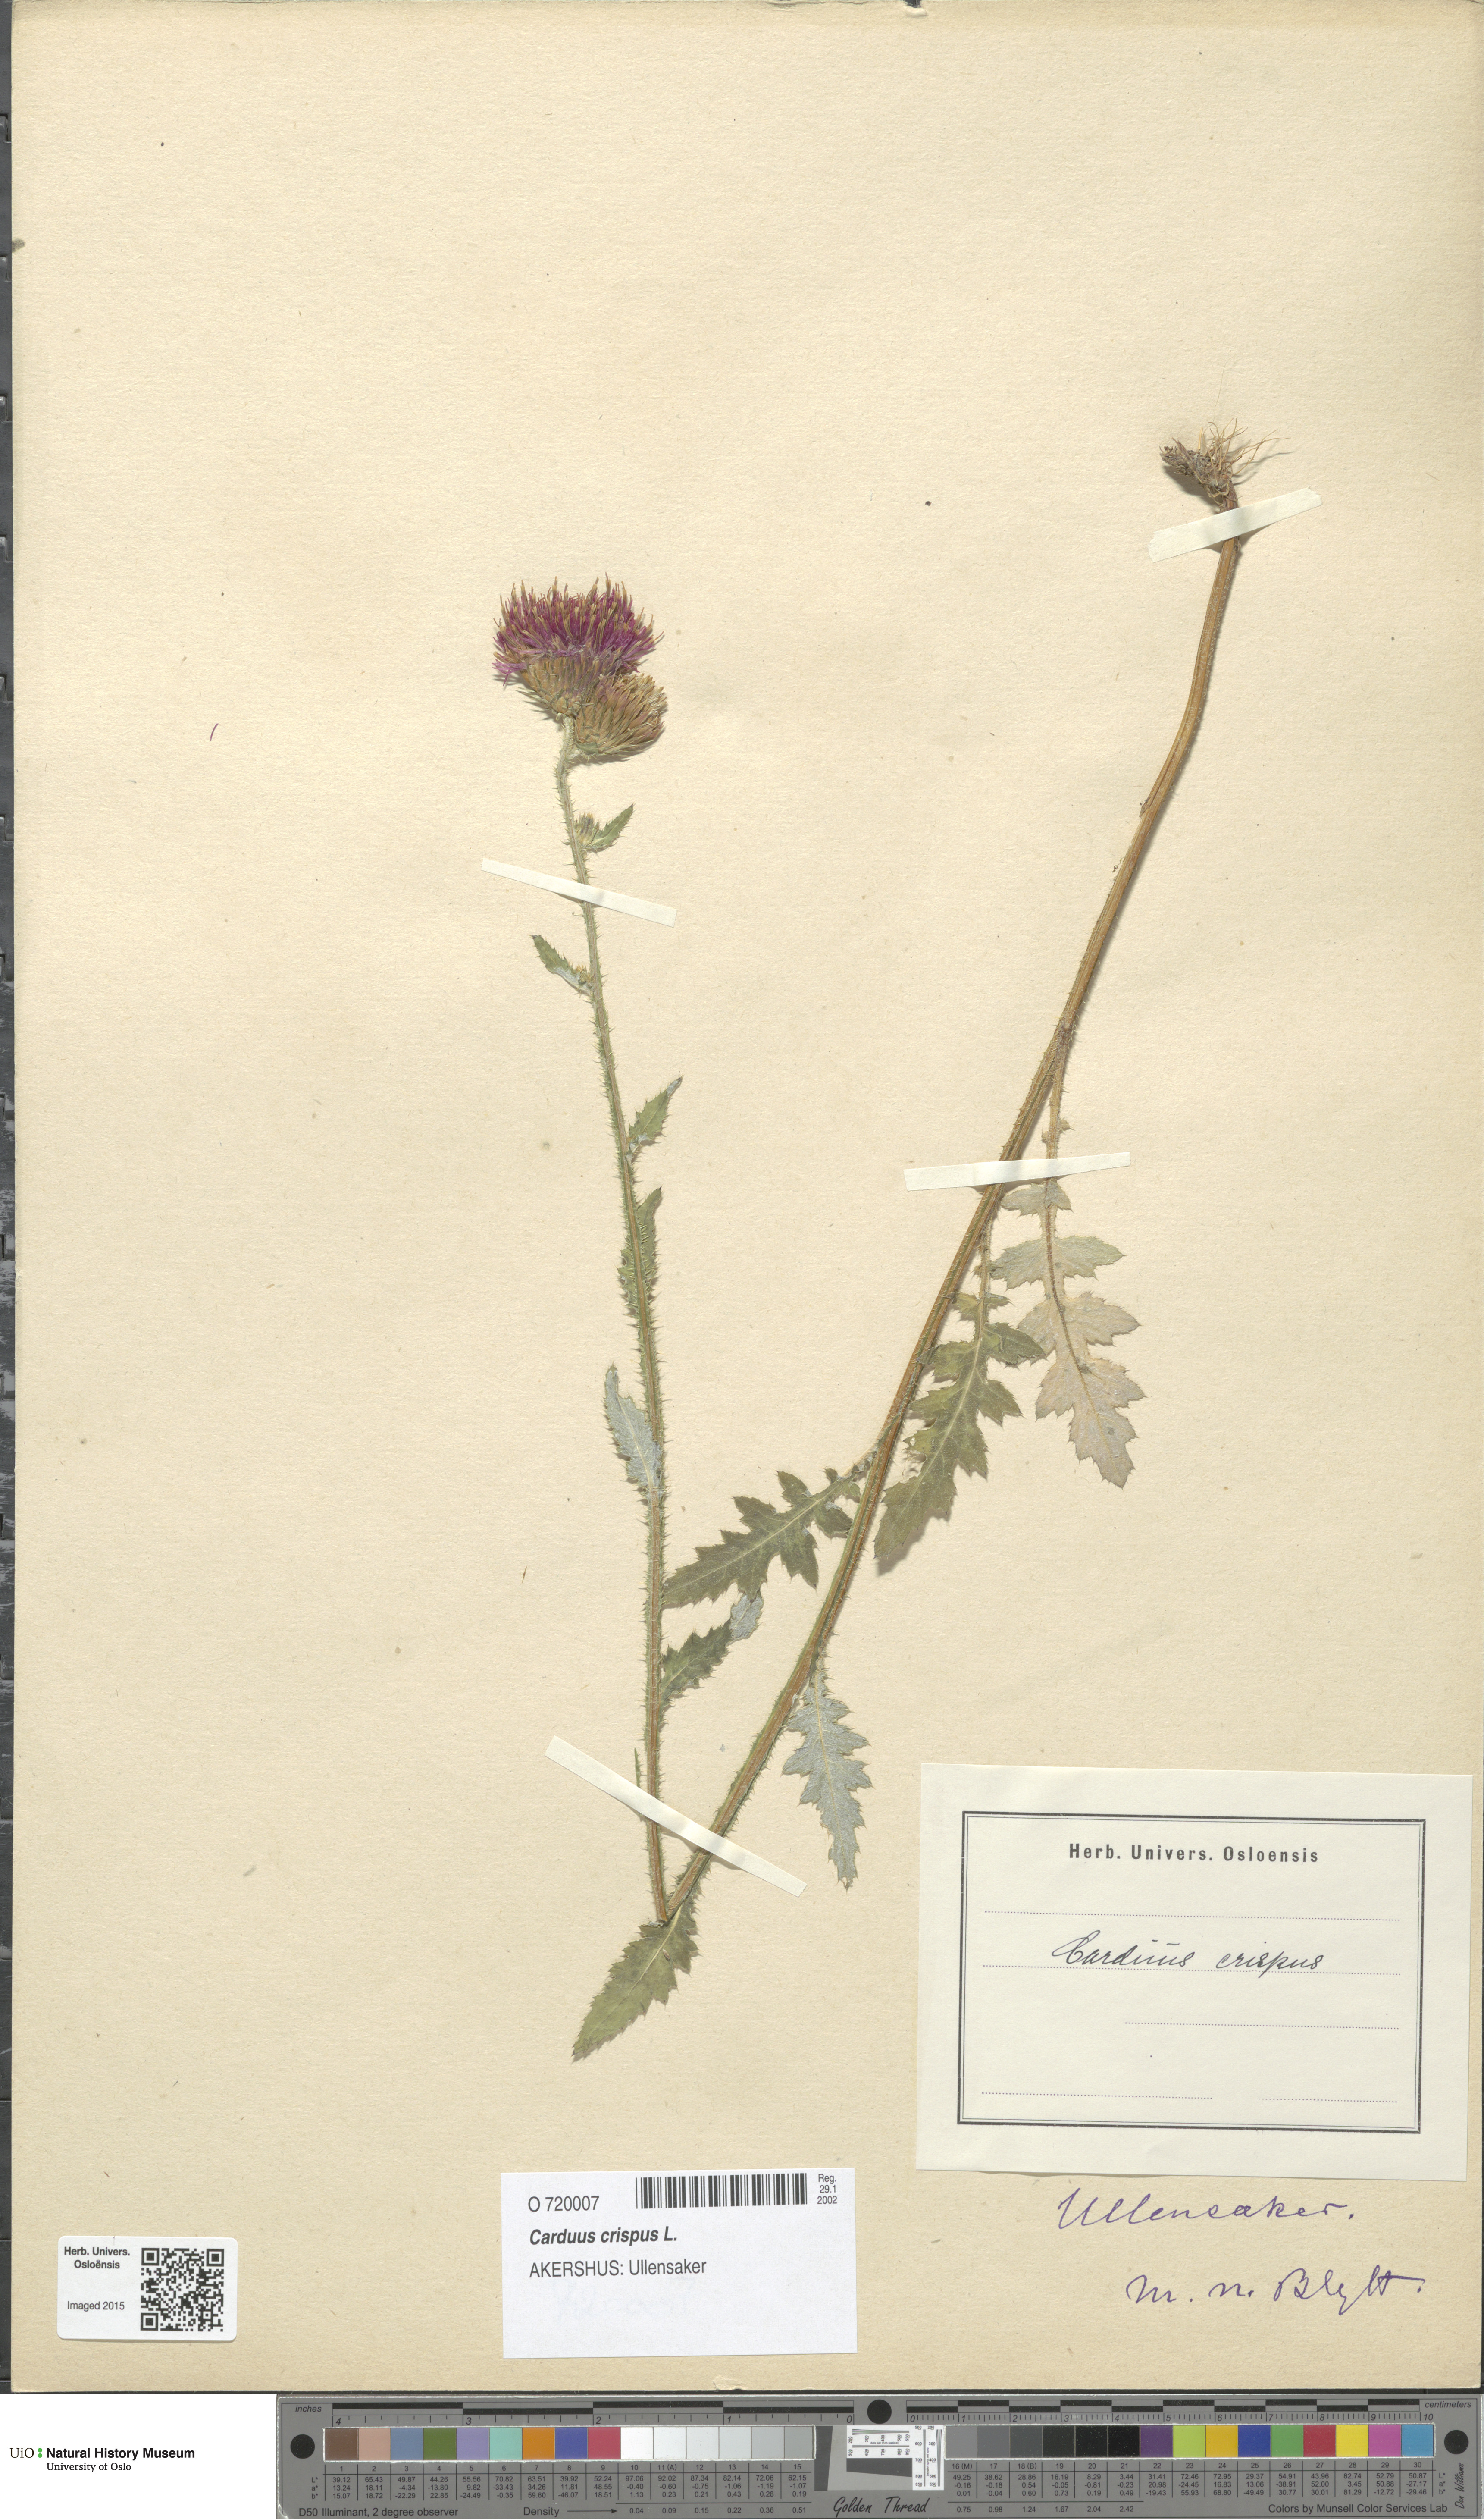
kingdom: Plantae
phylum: Tracheophyta
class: Magnoliopsida
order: Asterales
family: Asteraceae
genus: Carduus
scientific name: Carduus crispus
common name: Welted thistle
